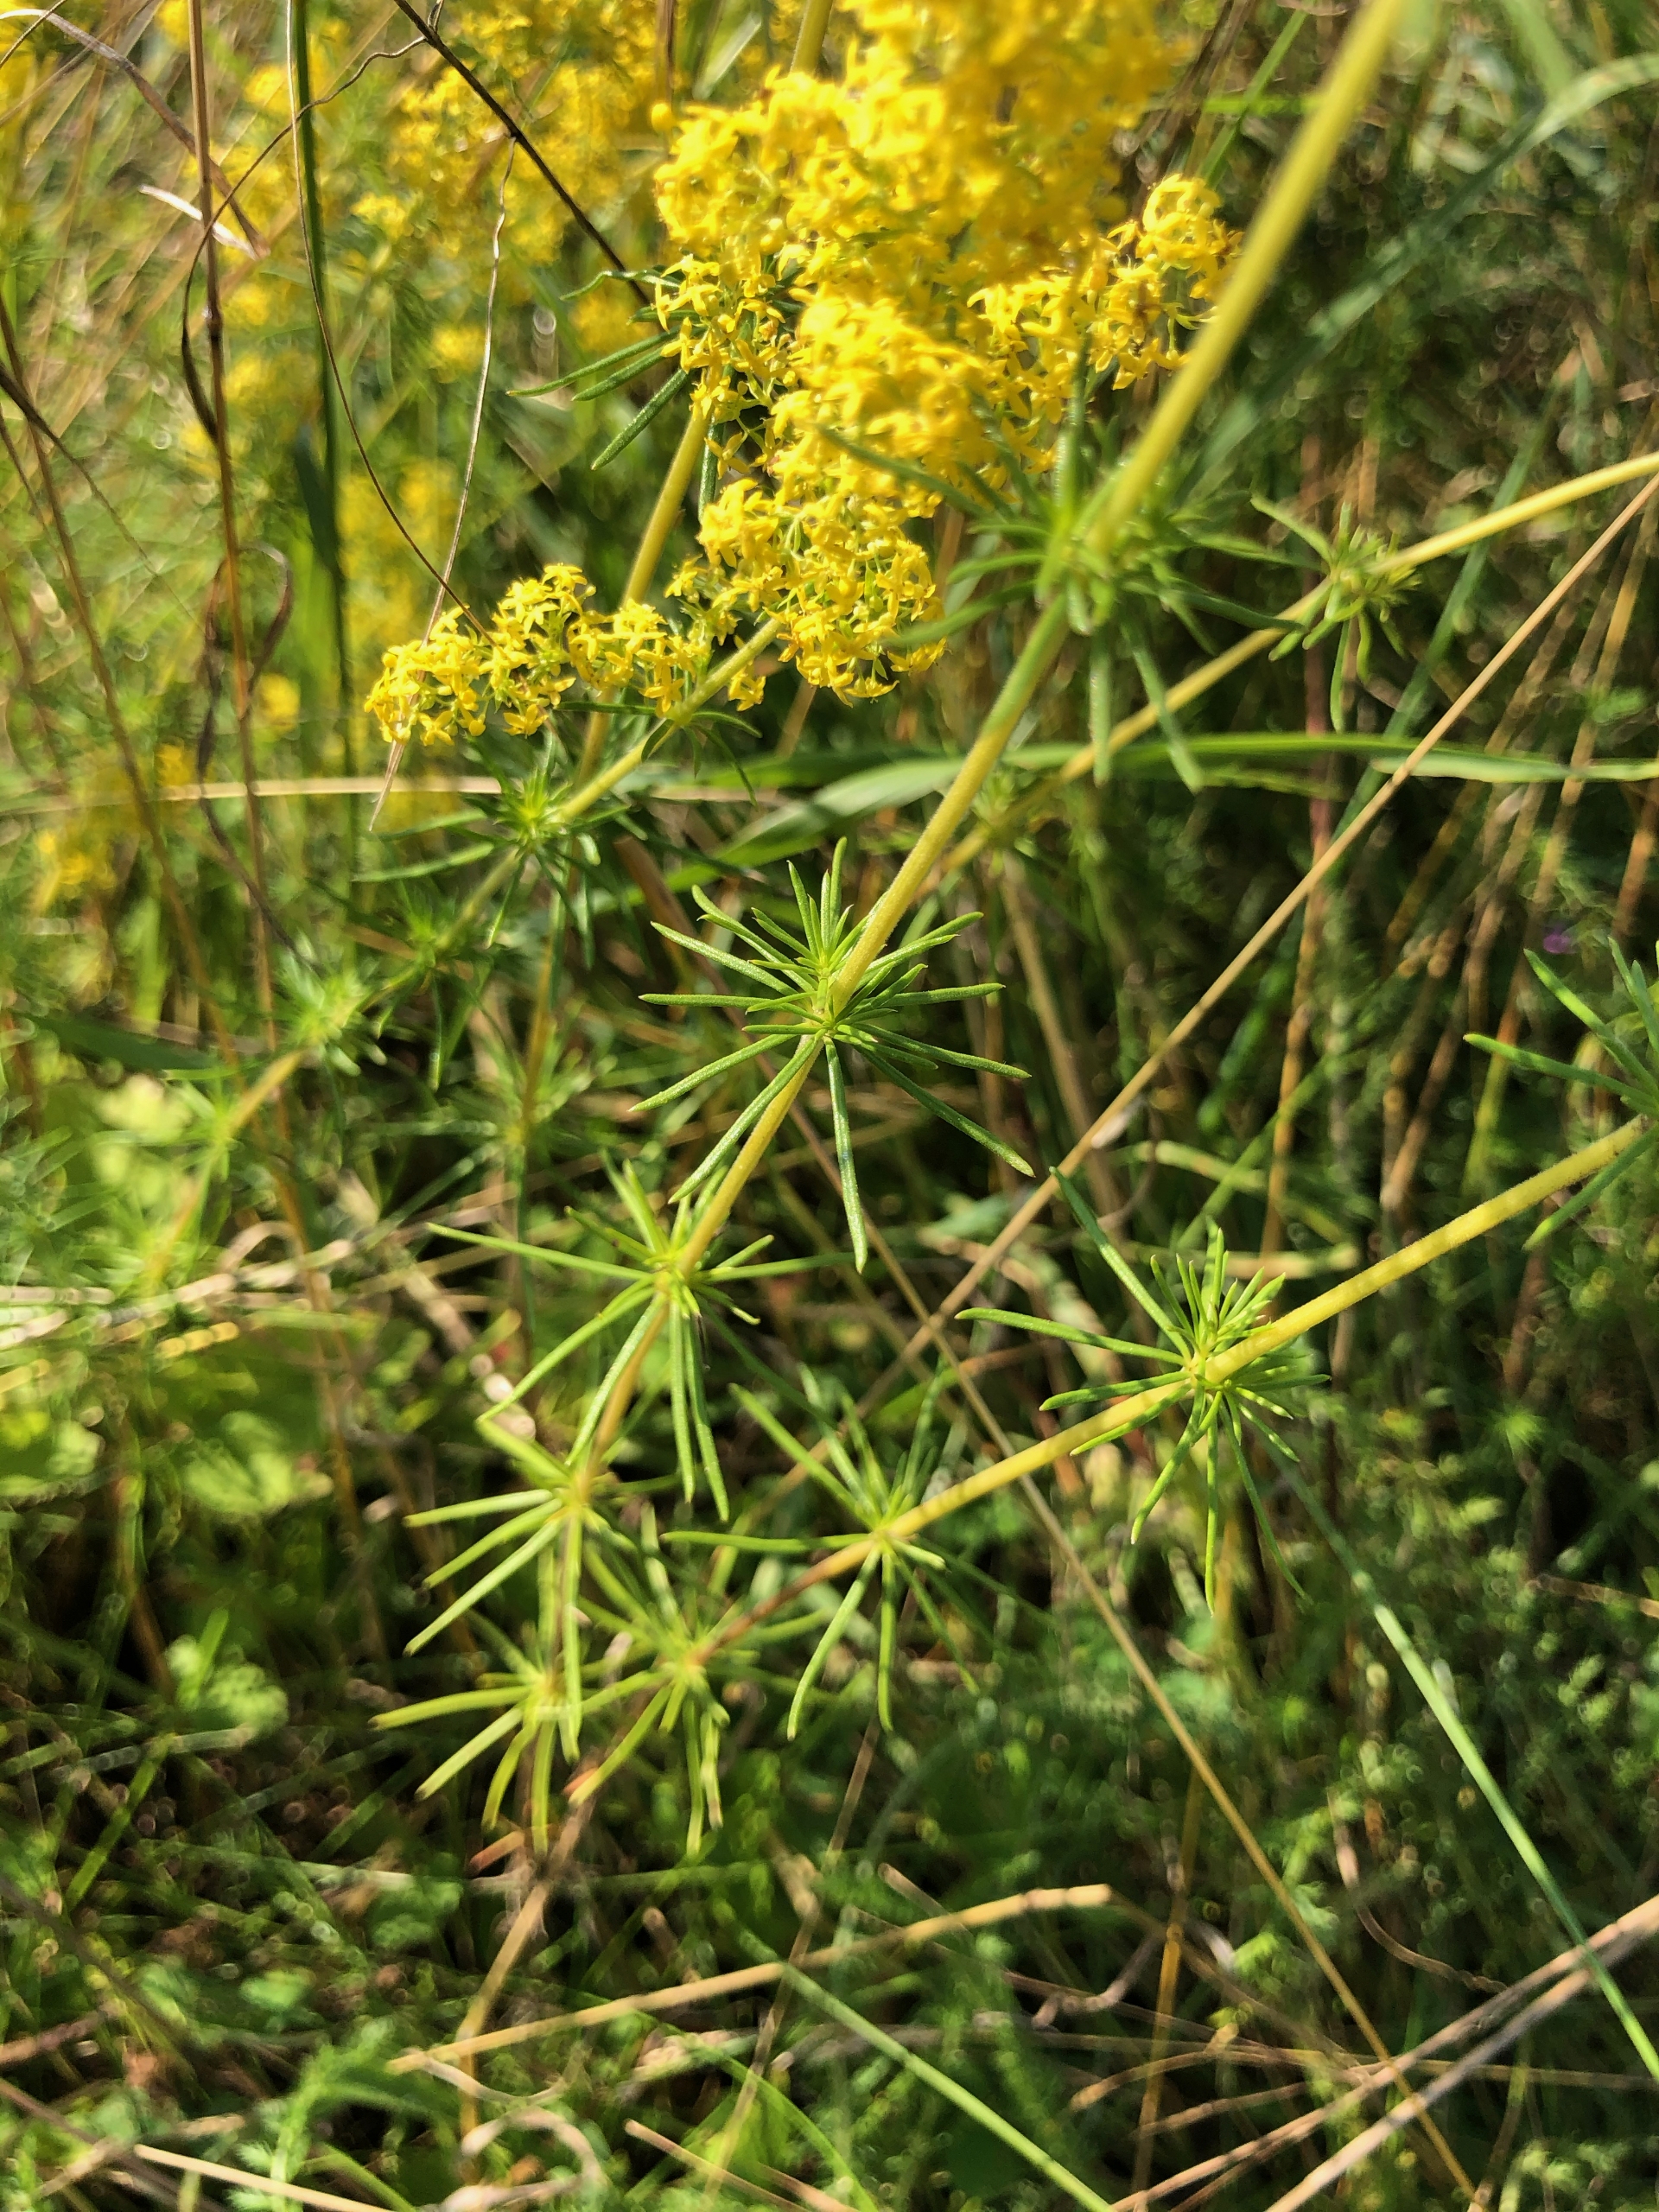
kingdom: Plantae
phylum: Tracheophyta
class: Magnoliopsida
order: Gentianales
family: Rubiaceae
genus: Galium
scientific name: Galium verum
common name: Gul snerre
